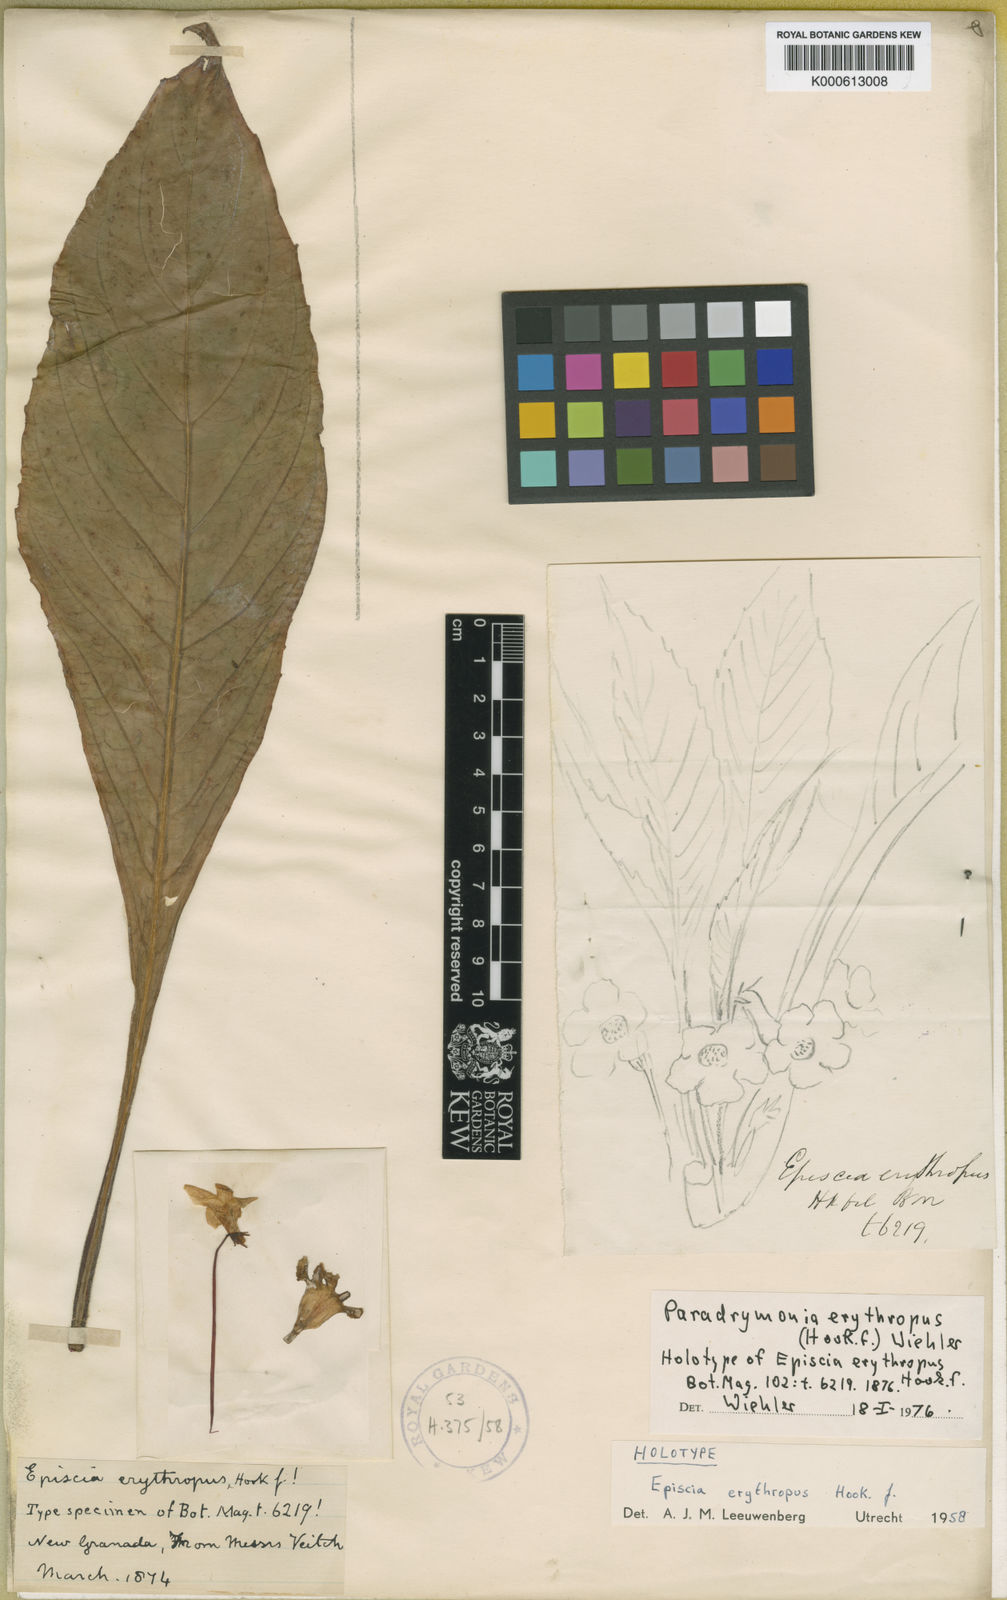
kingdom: Plantae
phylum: Tracheophyta
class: Magnoliopsida
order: Lamiales
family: Gesneriaceae
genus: Trichodrymonia
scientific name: Trichodrymonia erythropus
